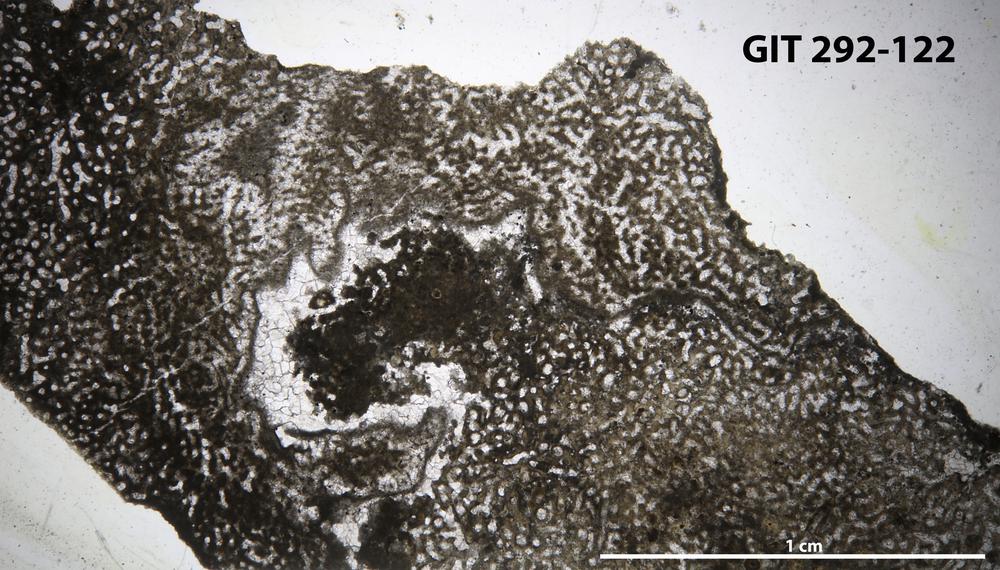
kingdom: Animalia
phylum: Porifera
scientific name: Porifera
